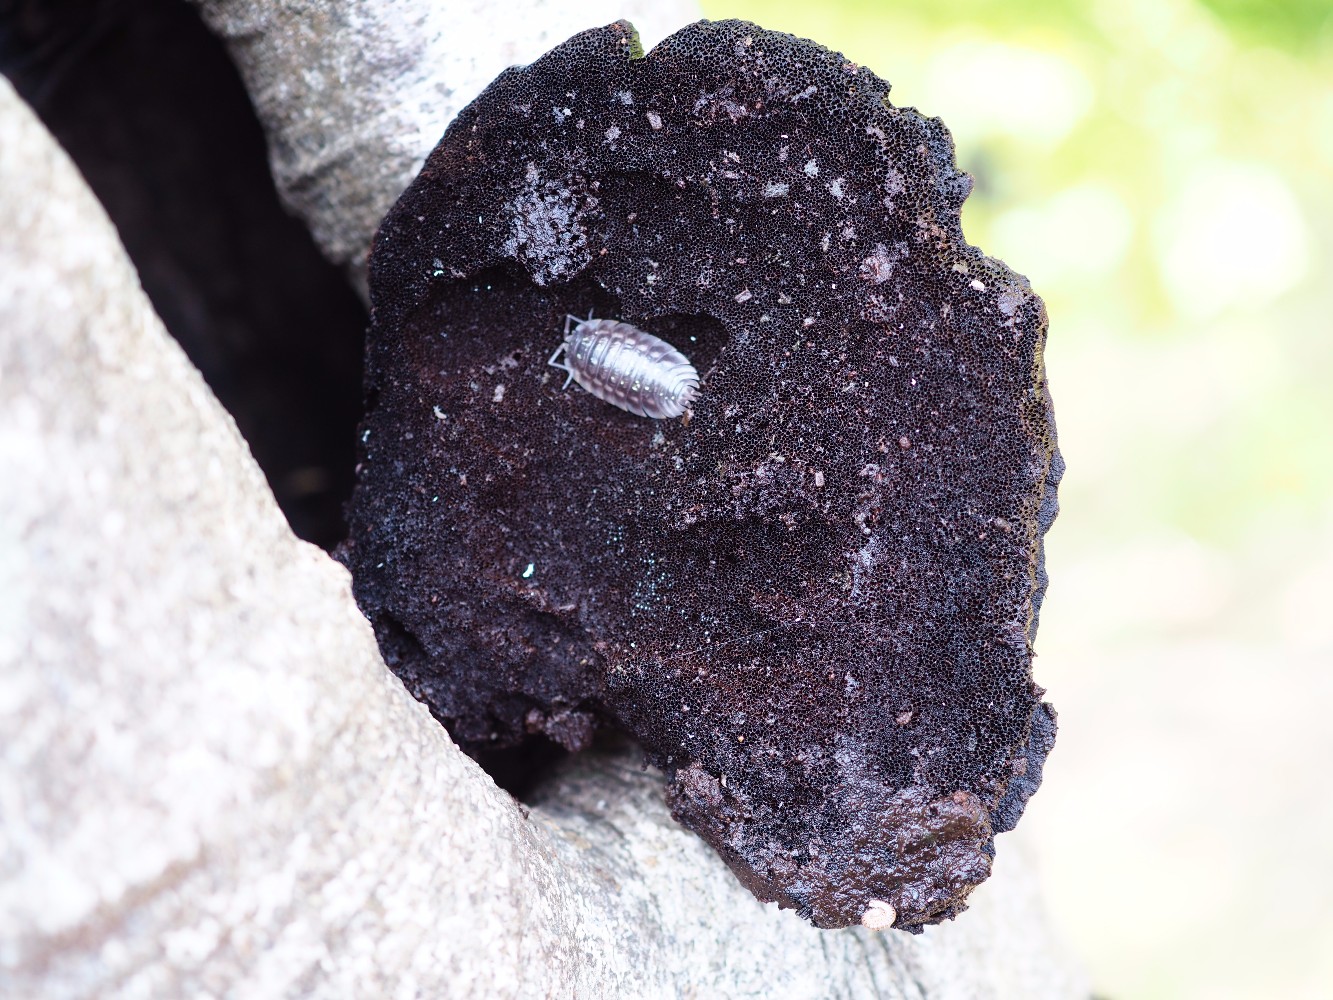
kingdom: Fungi
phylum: Basidiomycota
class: Agaricomycetes
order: Hymenochaetales
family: Hymenochaetaceae
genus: Inonotus
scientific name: Inonotus cuticularis
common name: kroghåret spejlporesvamp
